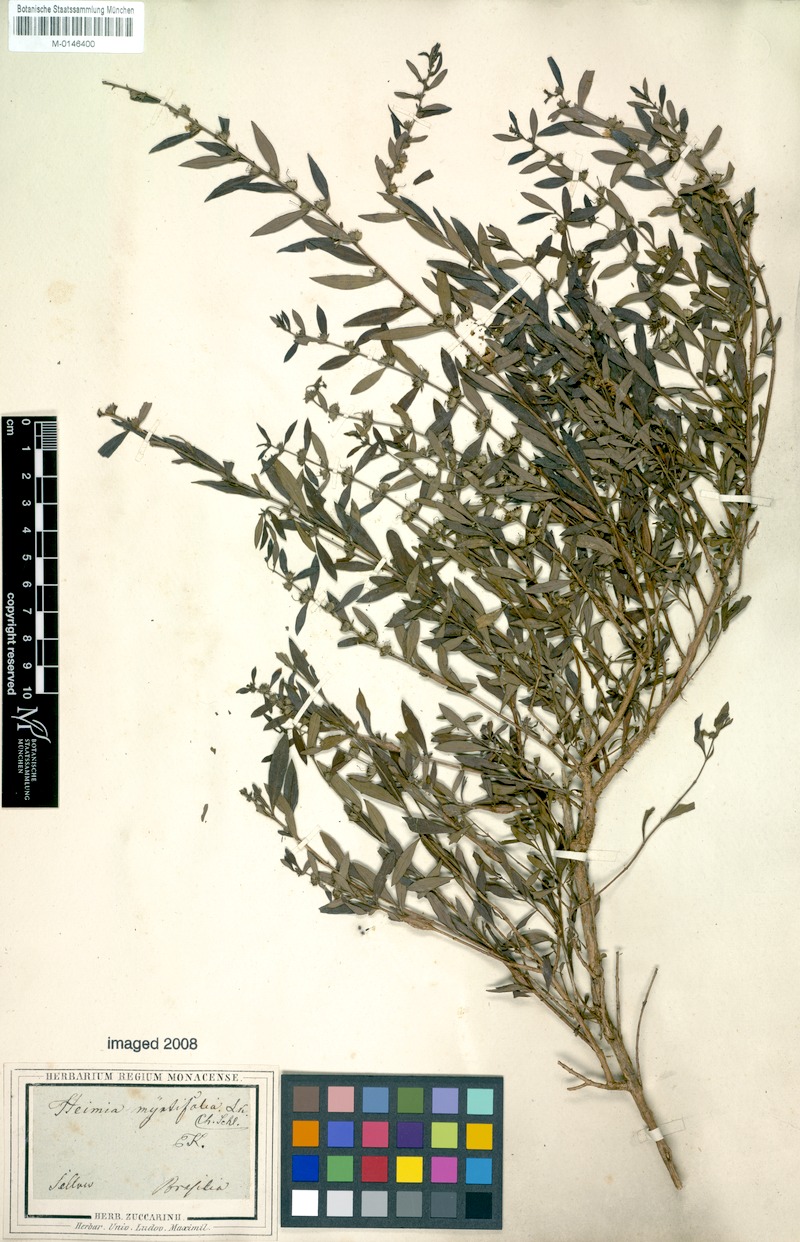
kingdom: Plantae
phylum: Tracheophyta
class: Magnoliopsida
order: Myrtales
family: Lythraceae
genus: Heimia
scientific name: Heimia apetala
